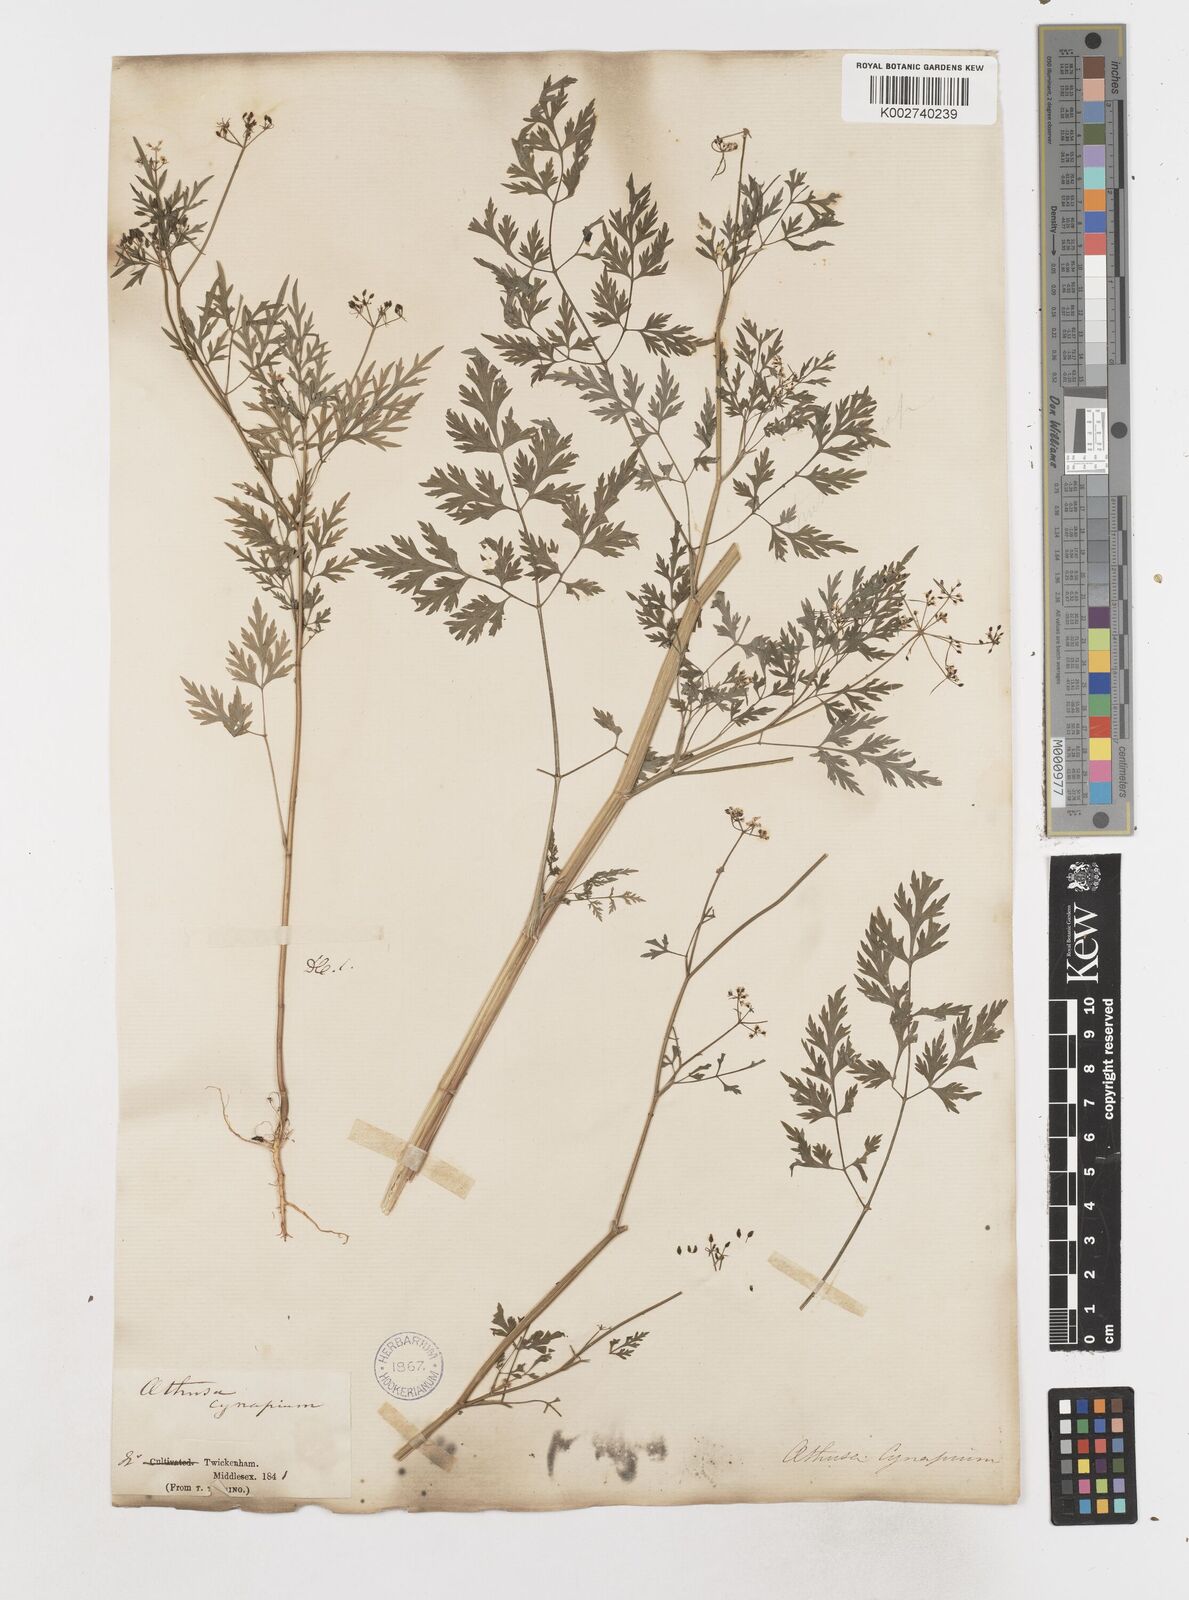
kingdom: Plantae
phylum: Tracheophyta
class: Magnoliopsida
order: Apiales
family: Apiaceae
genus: Aethusa
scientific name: Aethusa cynapium
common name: Fool's parsley
